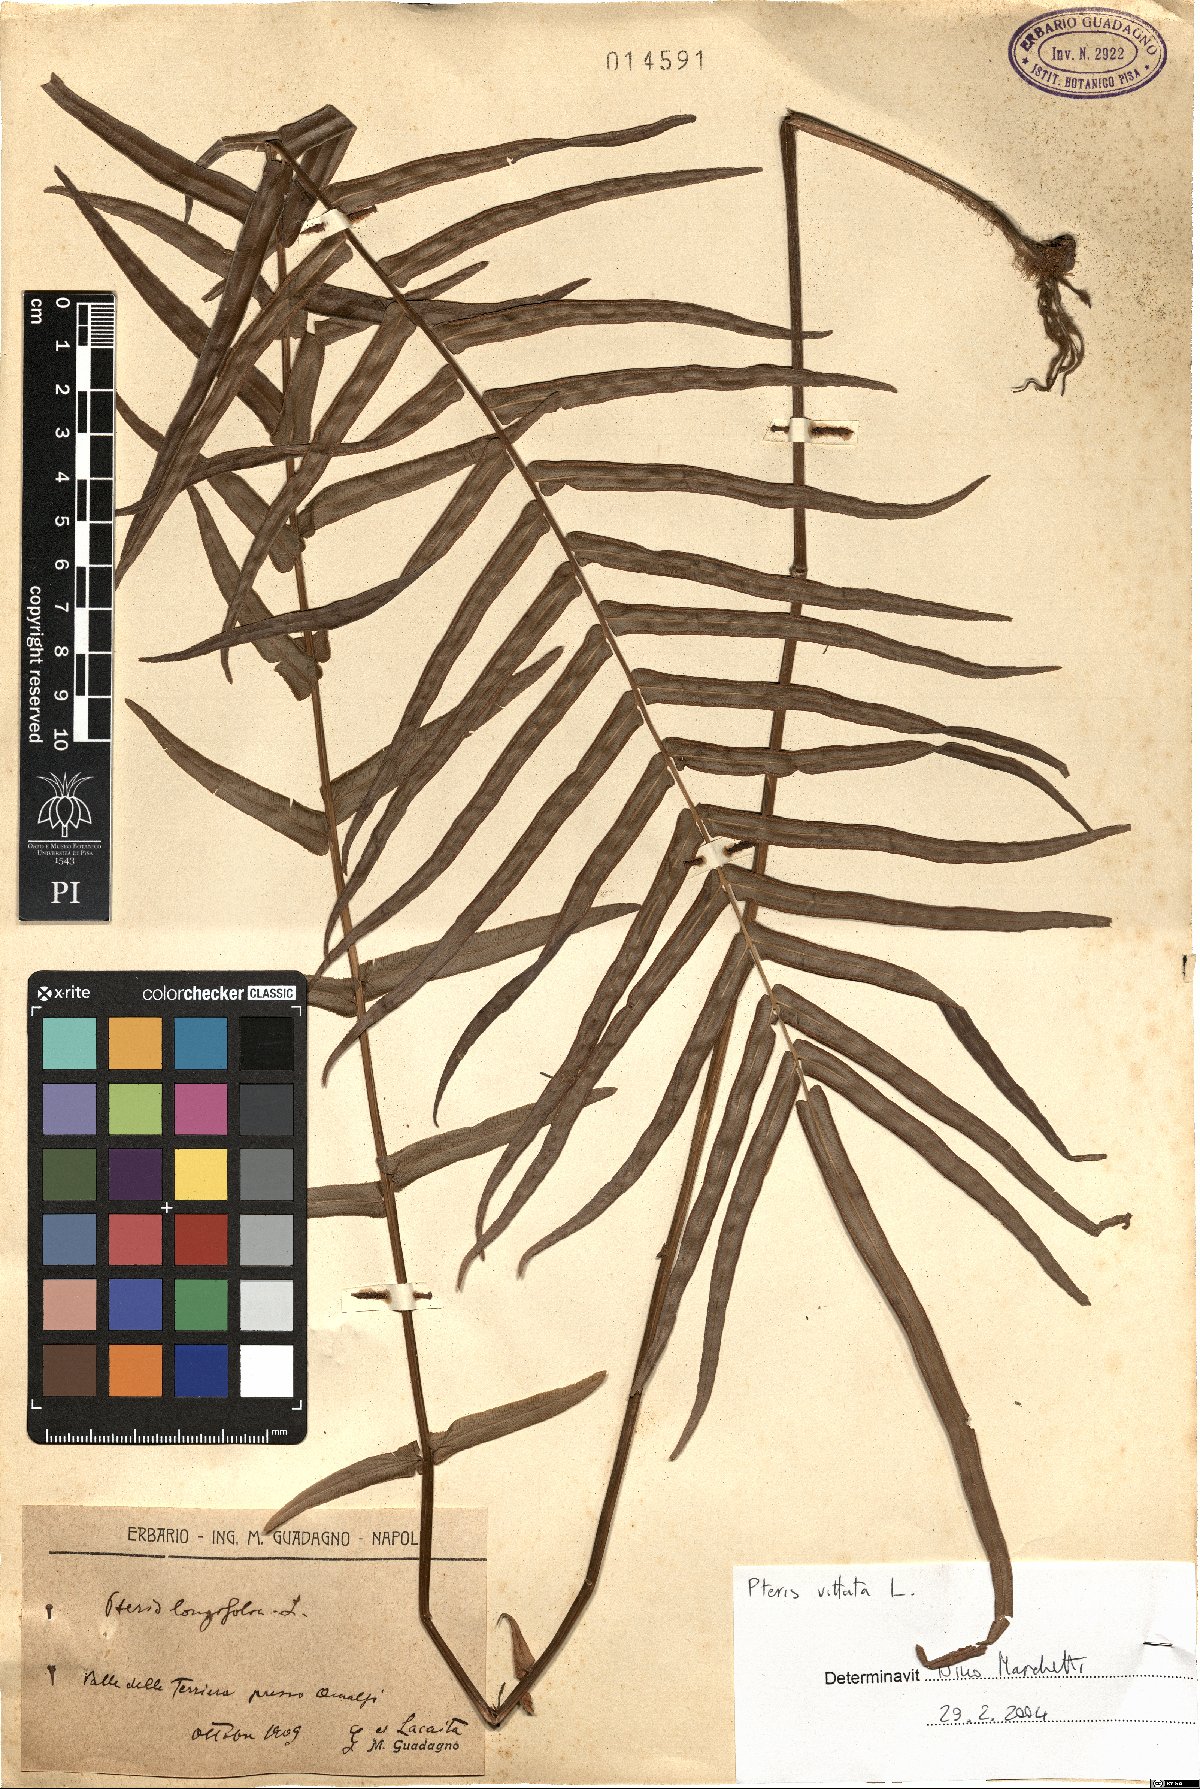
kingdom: Plantae
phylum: Tracheophyta
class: Polypodiopsida
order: Polypodiales
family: Pteridaceae
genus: Pteris
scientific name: Pteris vittata
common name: Ladder brake
